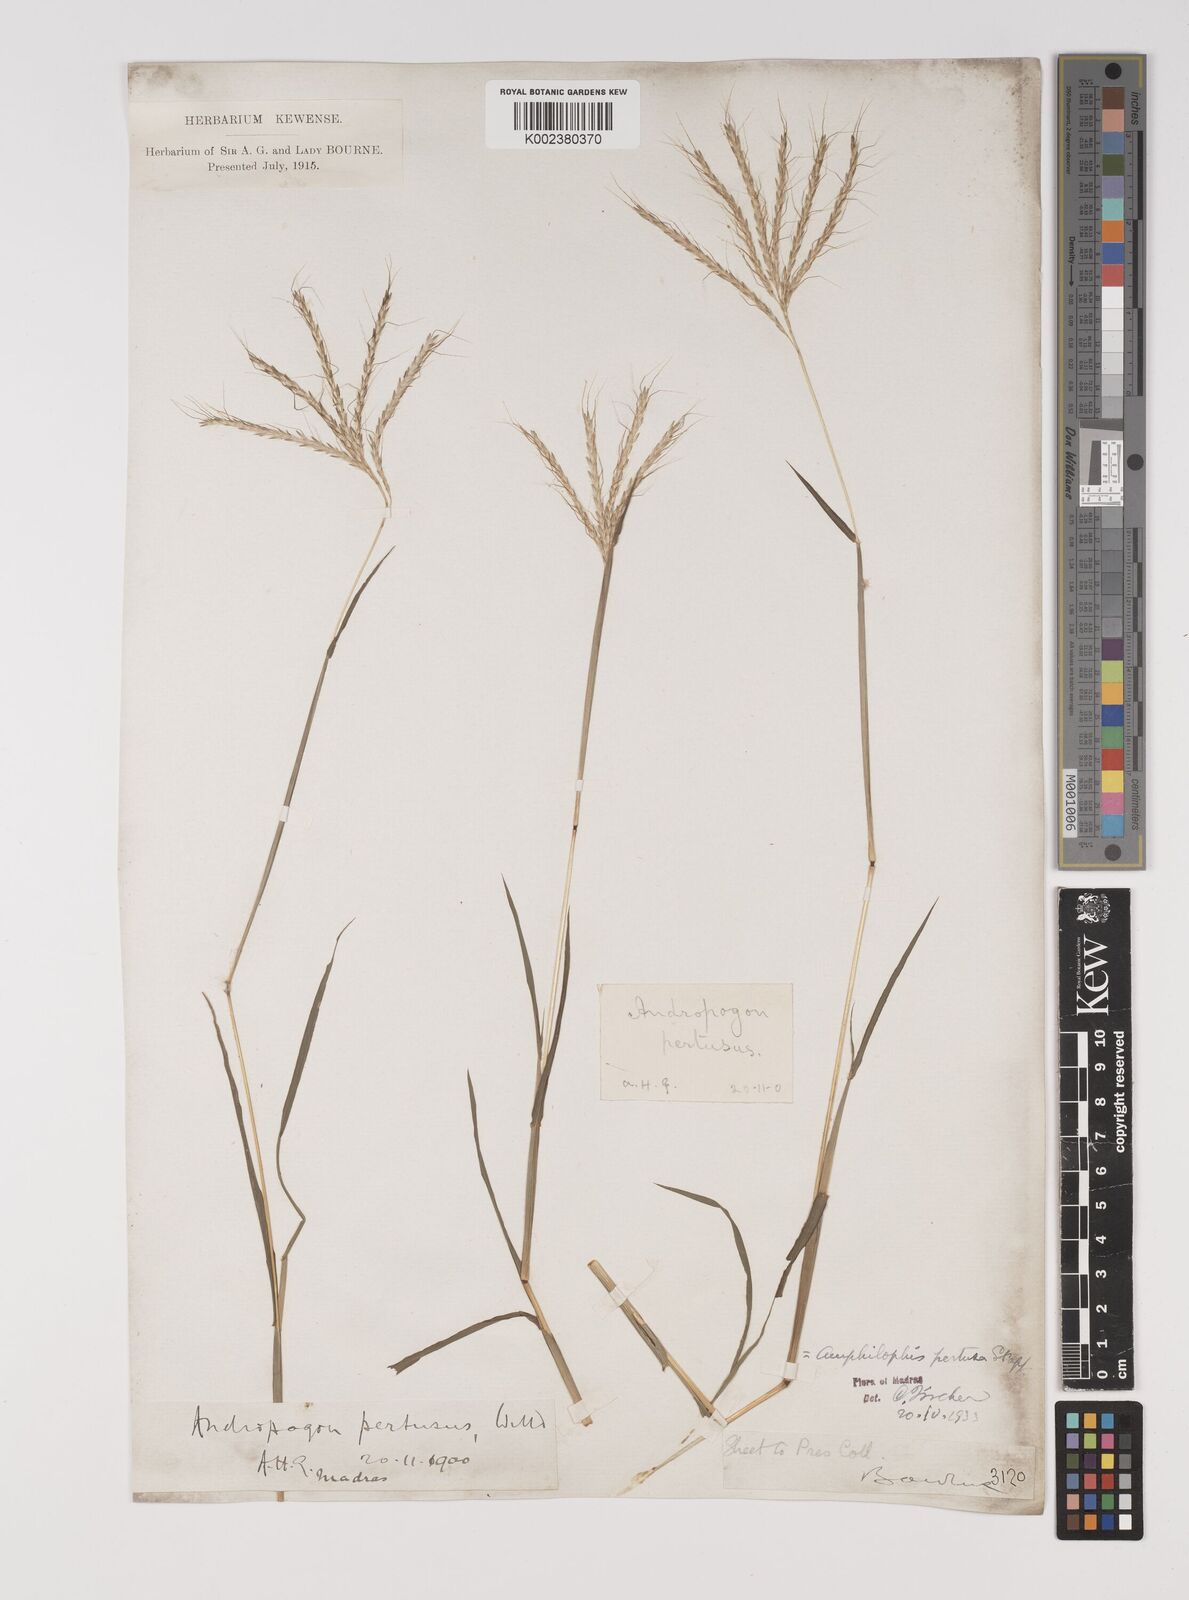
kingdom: Plantae
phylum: Tracheophyta
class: Liliopsida
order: Poales
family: Poaceae
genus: Bothriochloa
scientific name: Bothriochloa pertusa
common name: Pitted beardgrass
